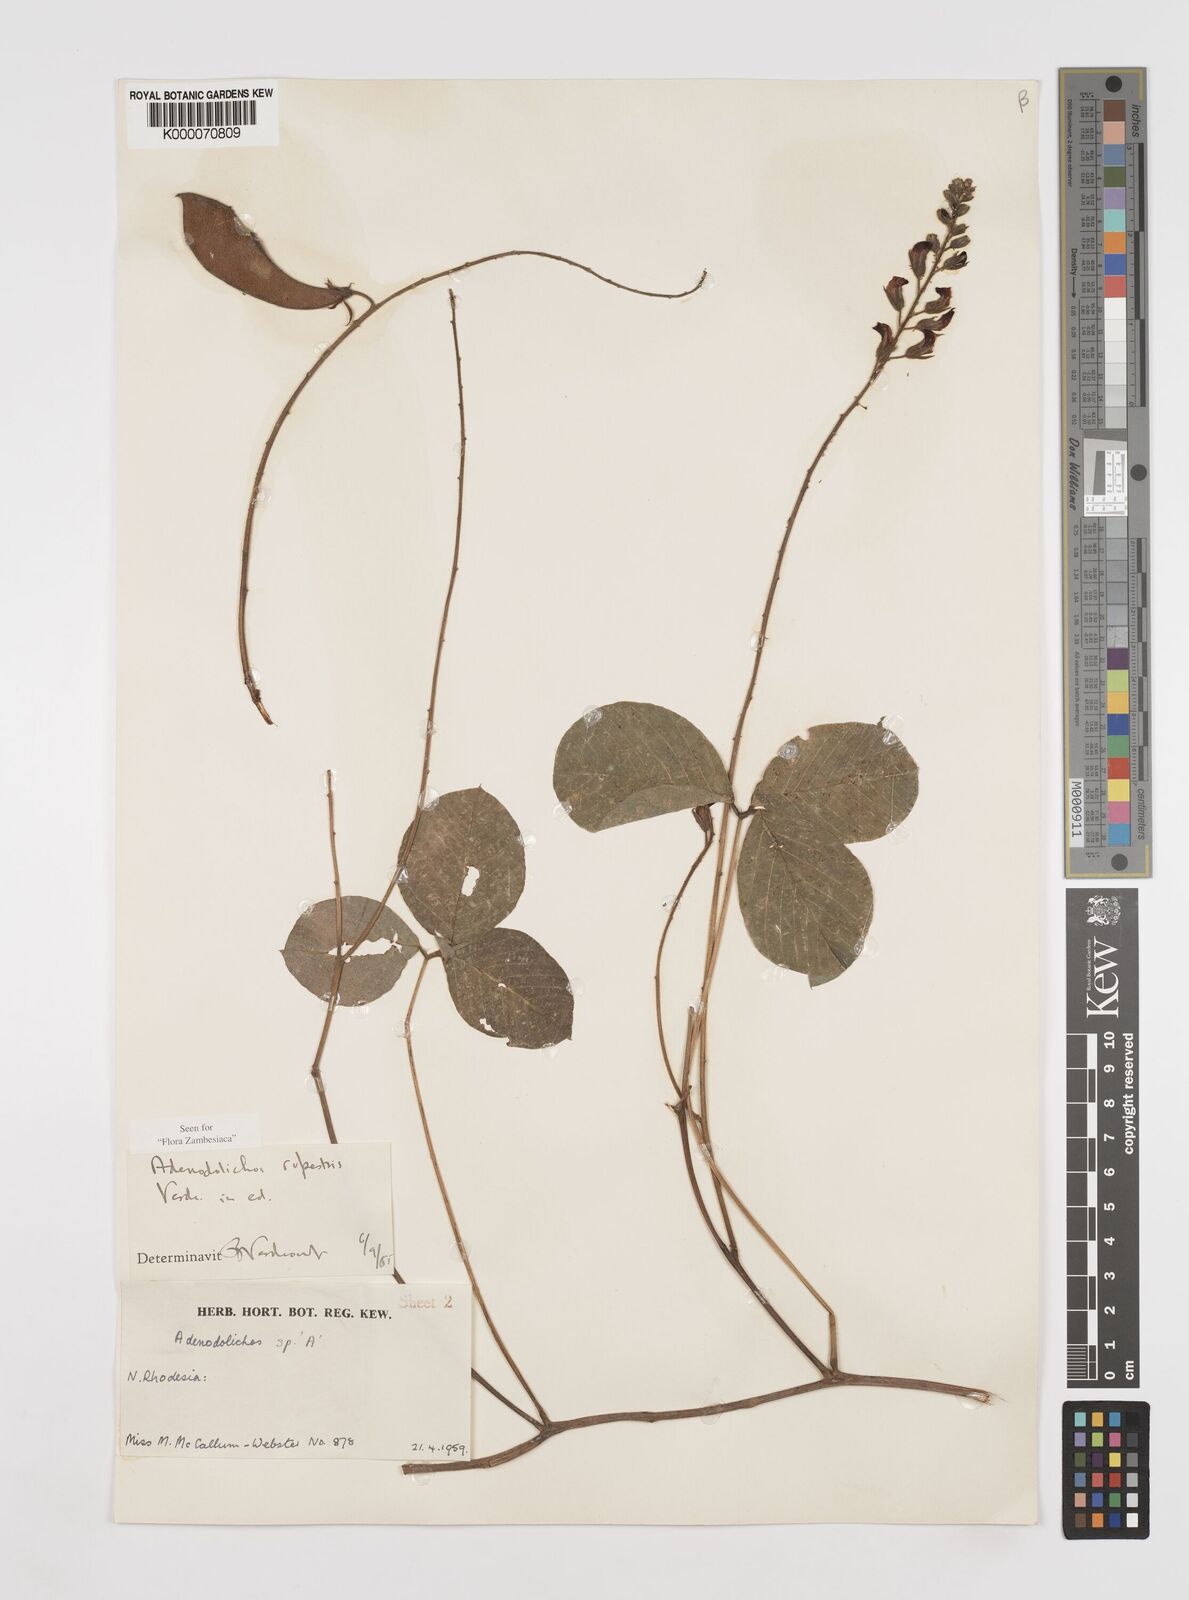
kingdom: Plantae
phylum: Tracheophyta
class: Magnoliopsida
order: Fabales
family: Fabaceae
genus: Adenodolichos
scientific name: Adenodolichos rupestris
